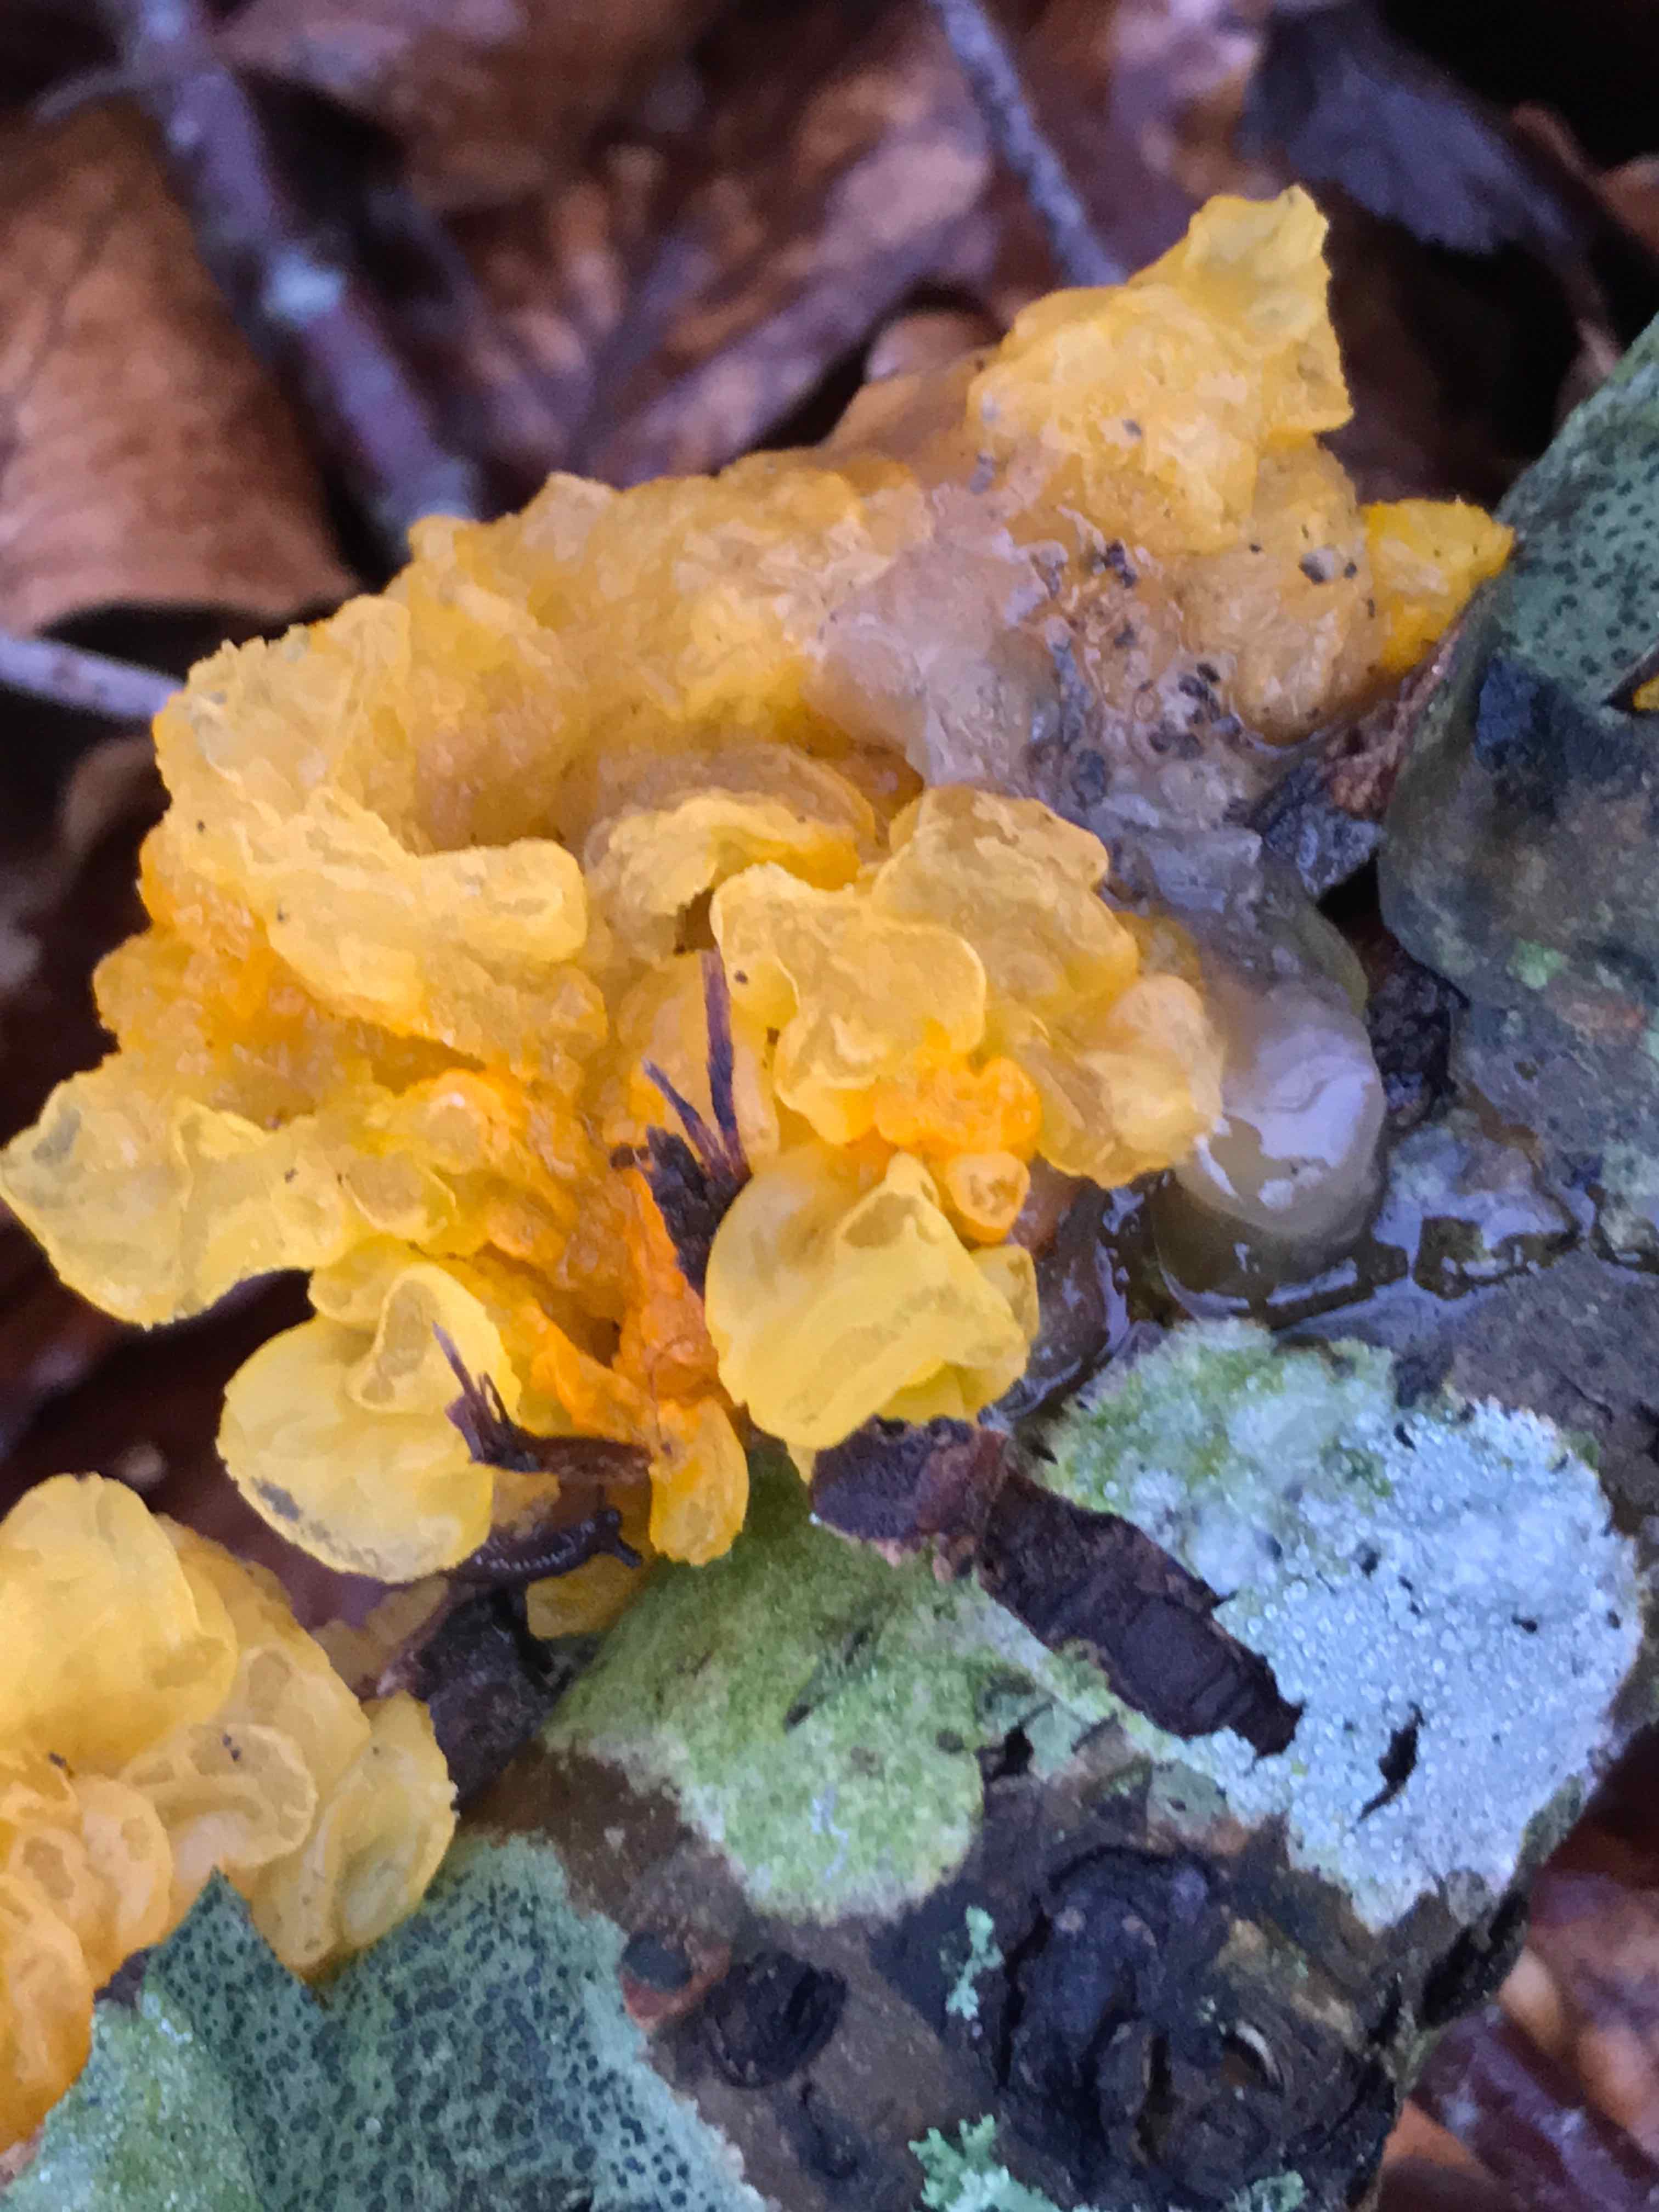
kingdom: Fungi
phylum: Basidiomycota
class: Tremellomycetes
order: Tremellales
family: Tremellaceae
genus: Tremella
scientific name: Tremella mesenterica
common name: gul bævresvamp
